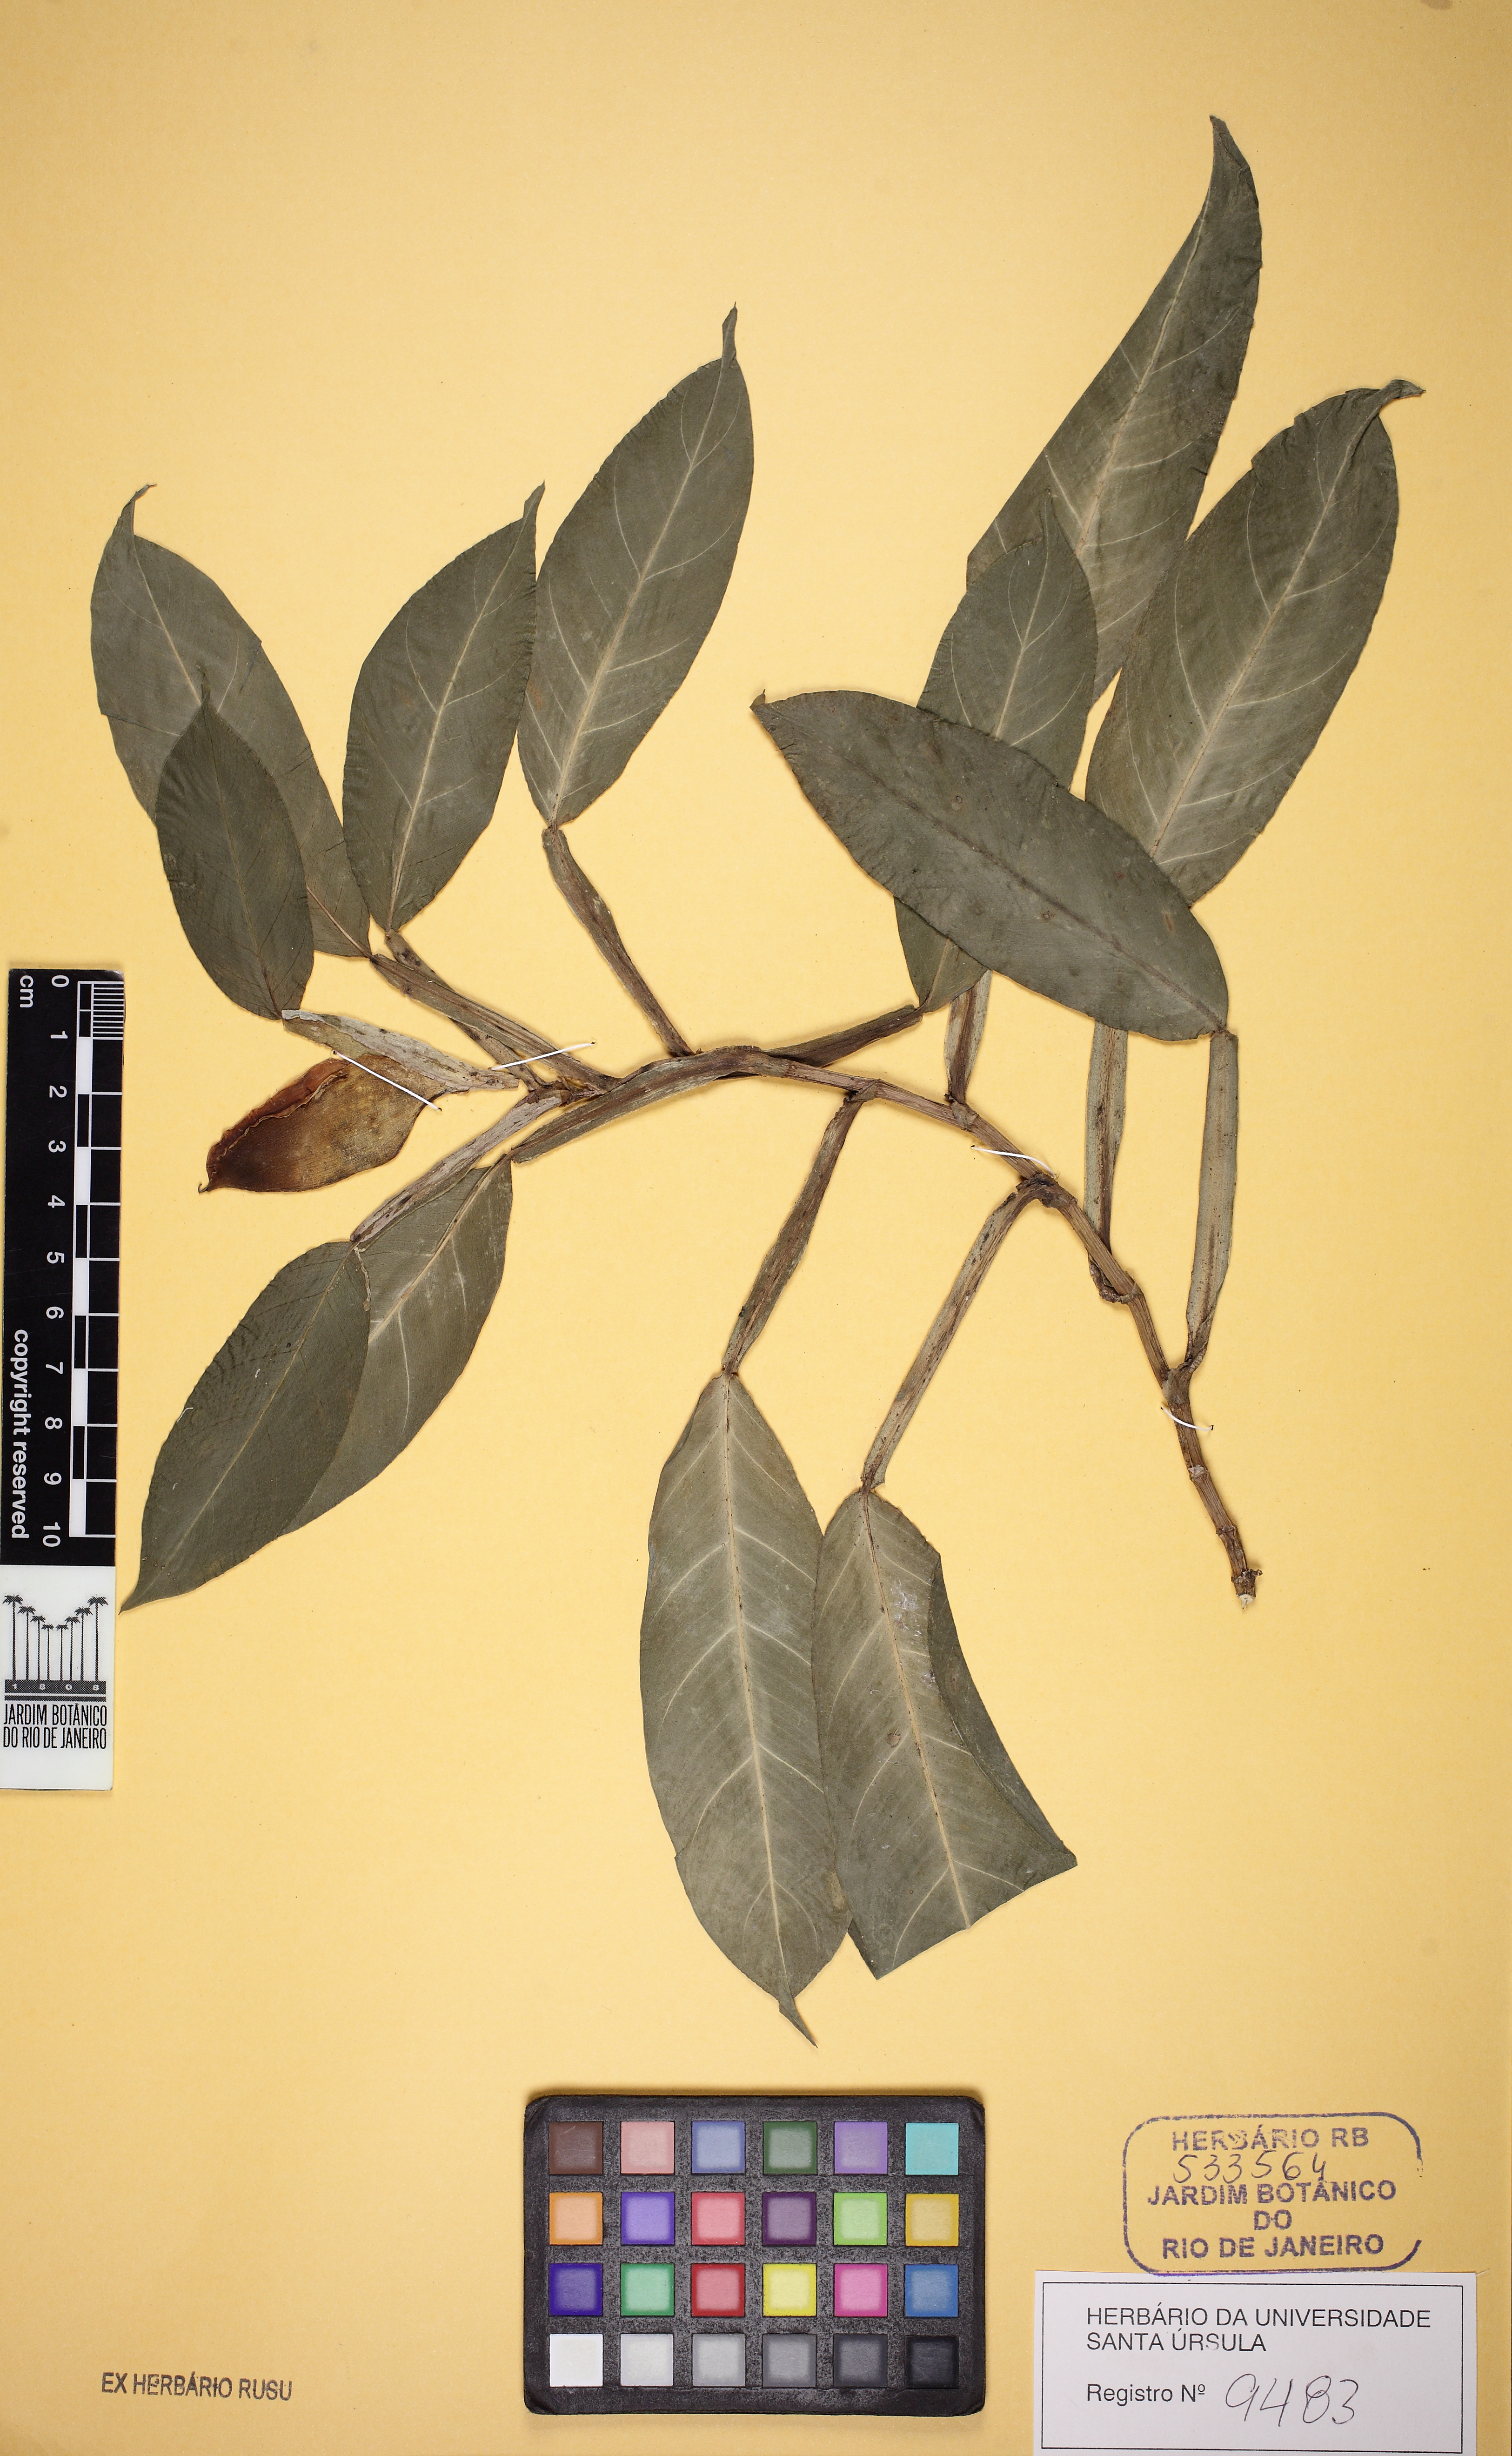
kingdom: Plantae
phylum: Tracheophyta
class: Liliopsida
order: Alismatales
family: Araceae
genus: Philodendron
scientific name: Philodendron propinquum
